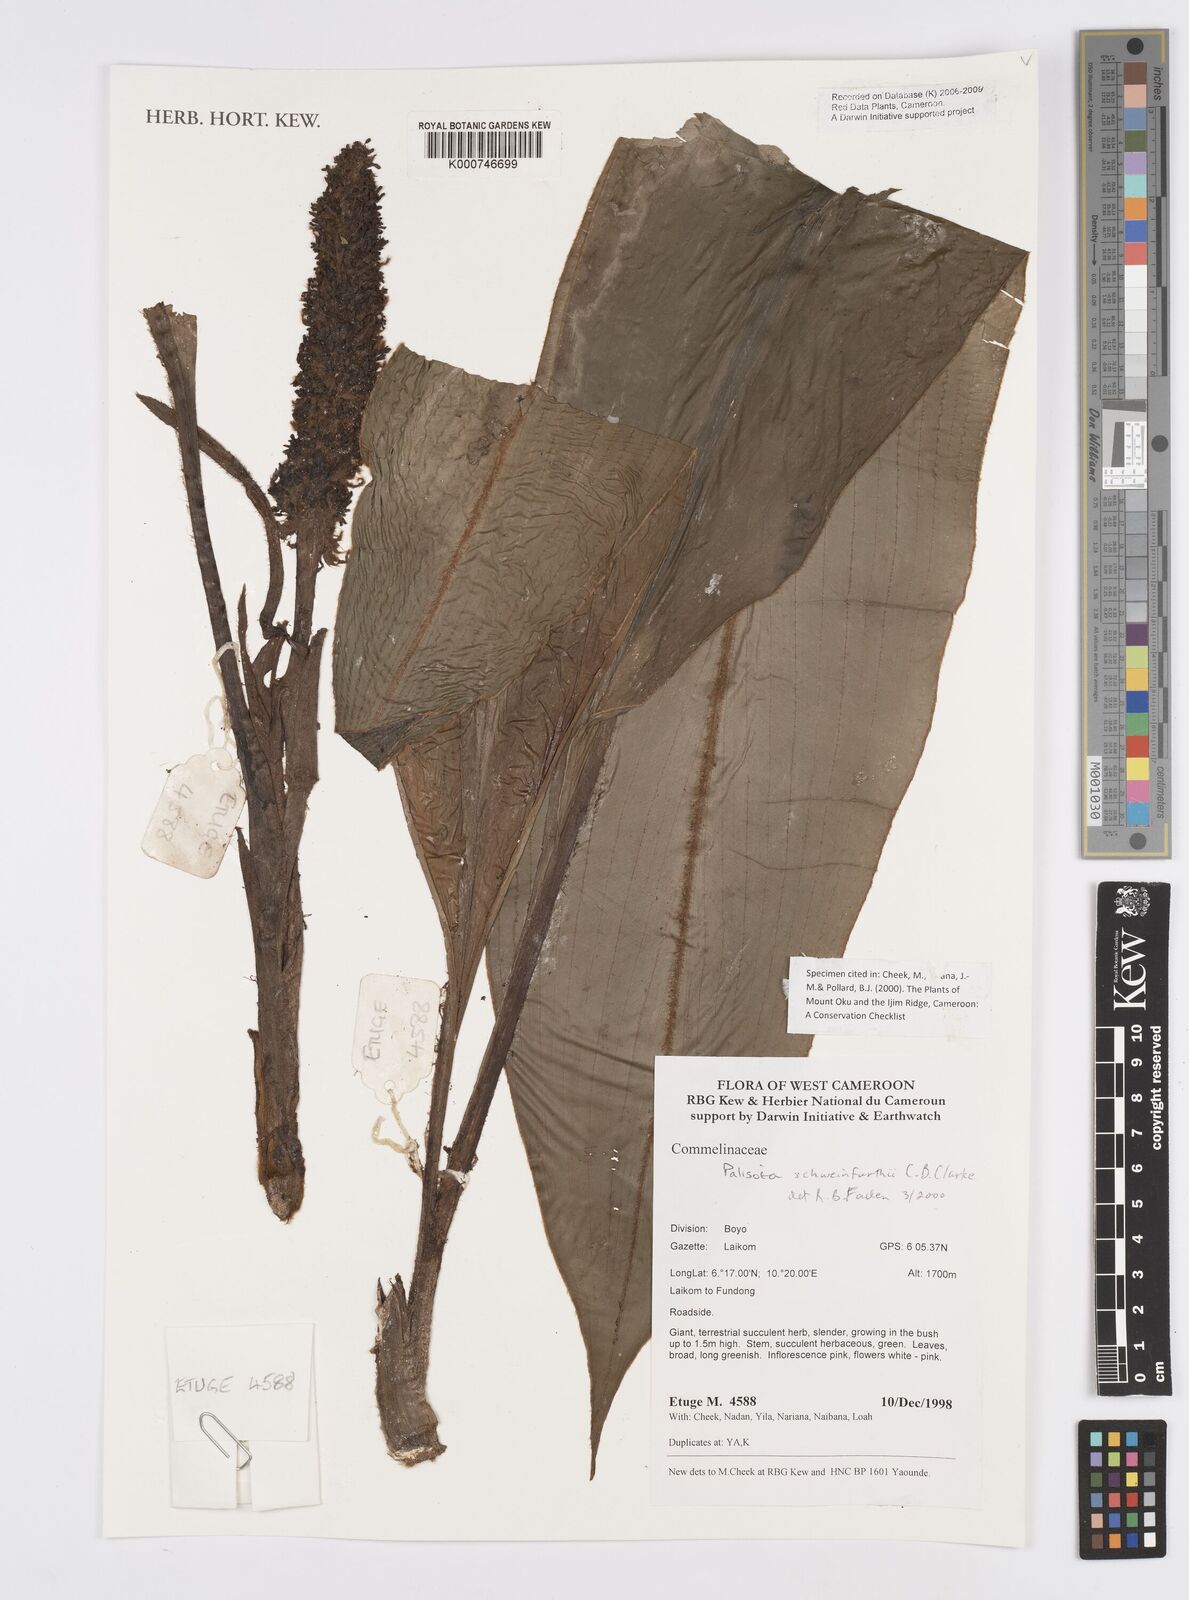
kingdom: Plantae
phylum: Tracheophyta
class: Liliopsida
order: Commelinales
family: Commelinaceae
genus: Palisota
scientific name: Palisota schweinfurthii
